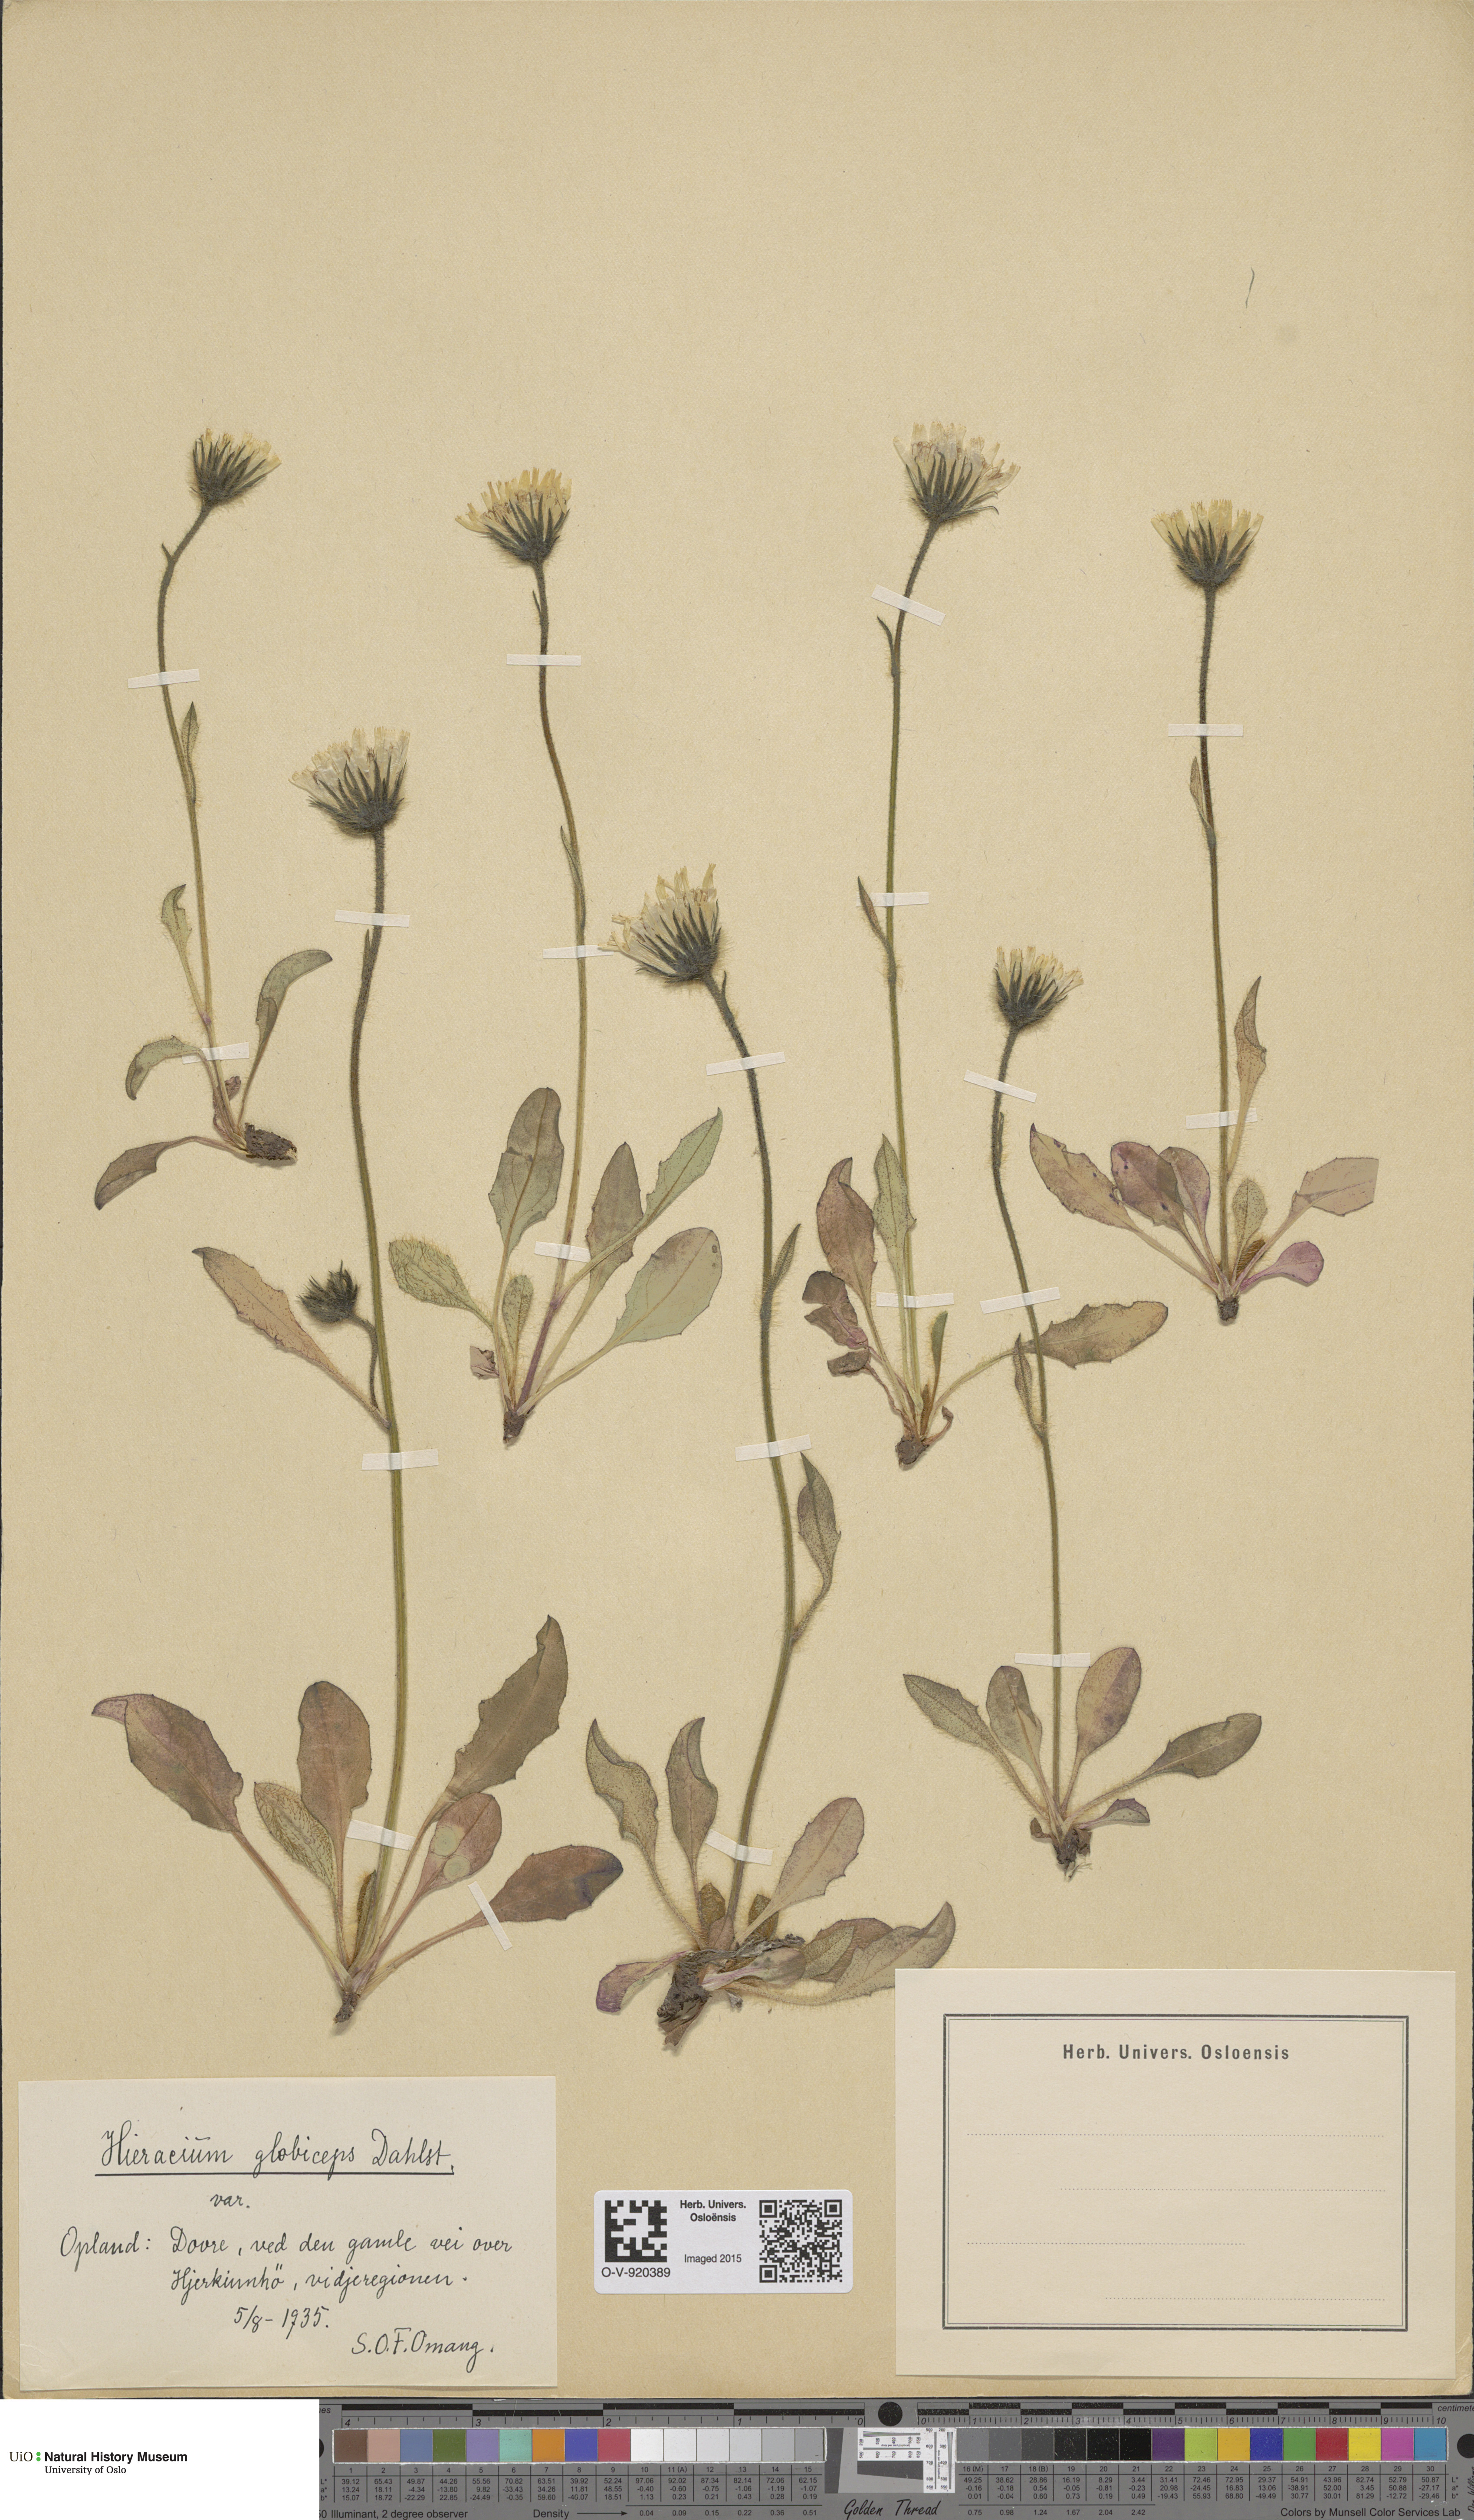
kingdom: Plantae
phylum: Tracheophyta
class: Magnoliopsida
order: Asterales
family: Asteraceae
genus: Hieracium
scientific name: Hieracium alpinum
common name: Alpine hawkweed
